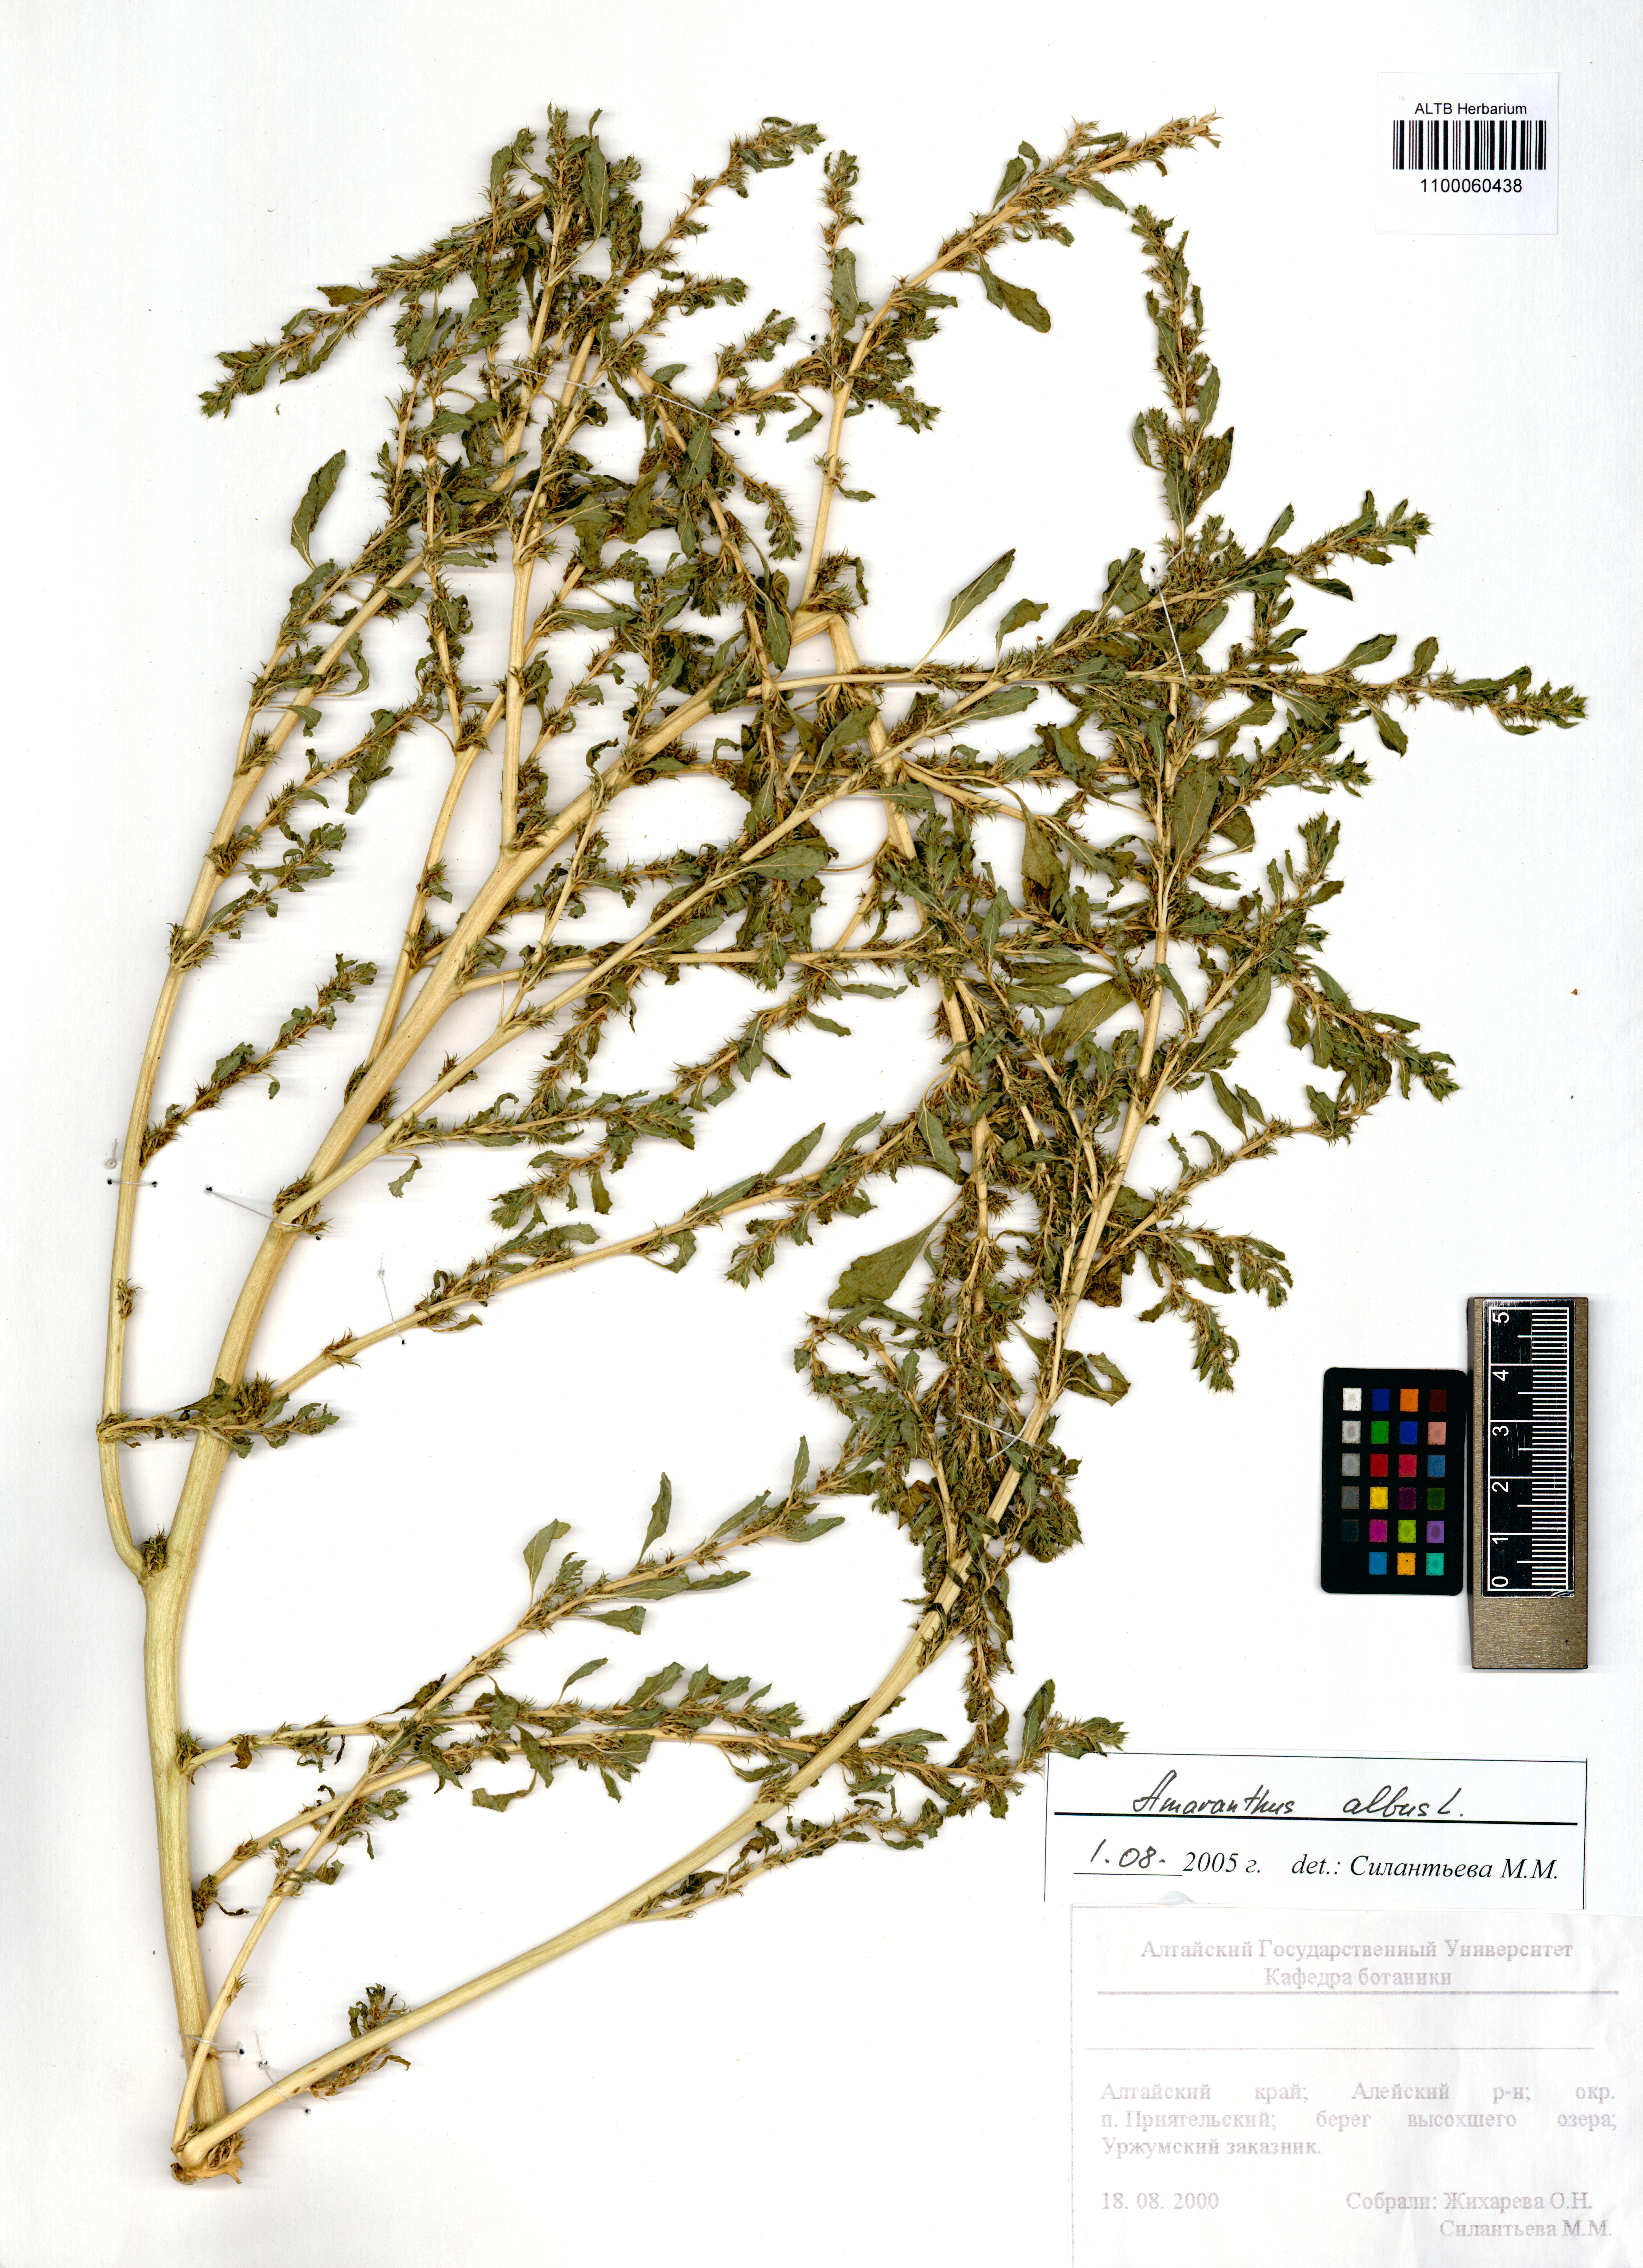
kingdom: Plantae
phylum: Tracheophyta
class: Magnoliopsida
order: Caryophyllales
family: Amaranthaceae
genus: Amaranthus
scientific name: Amaranthus albus
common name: White pigweed
